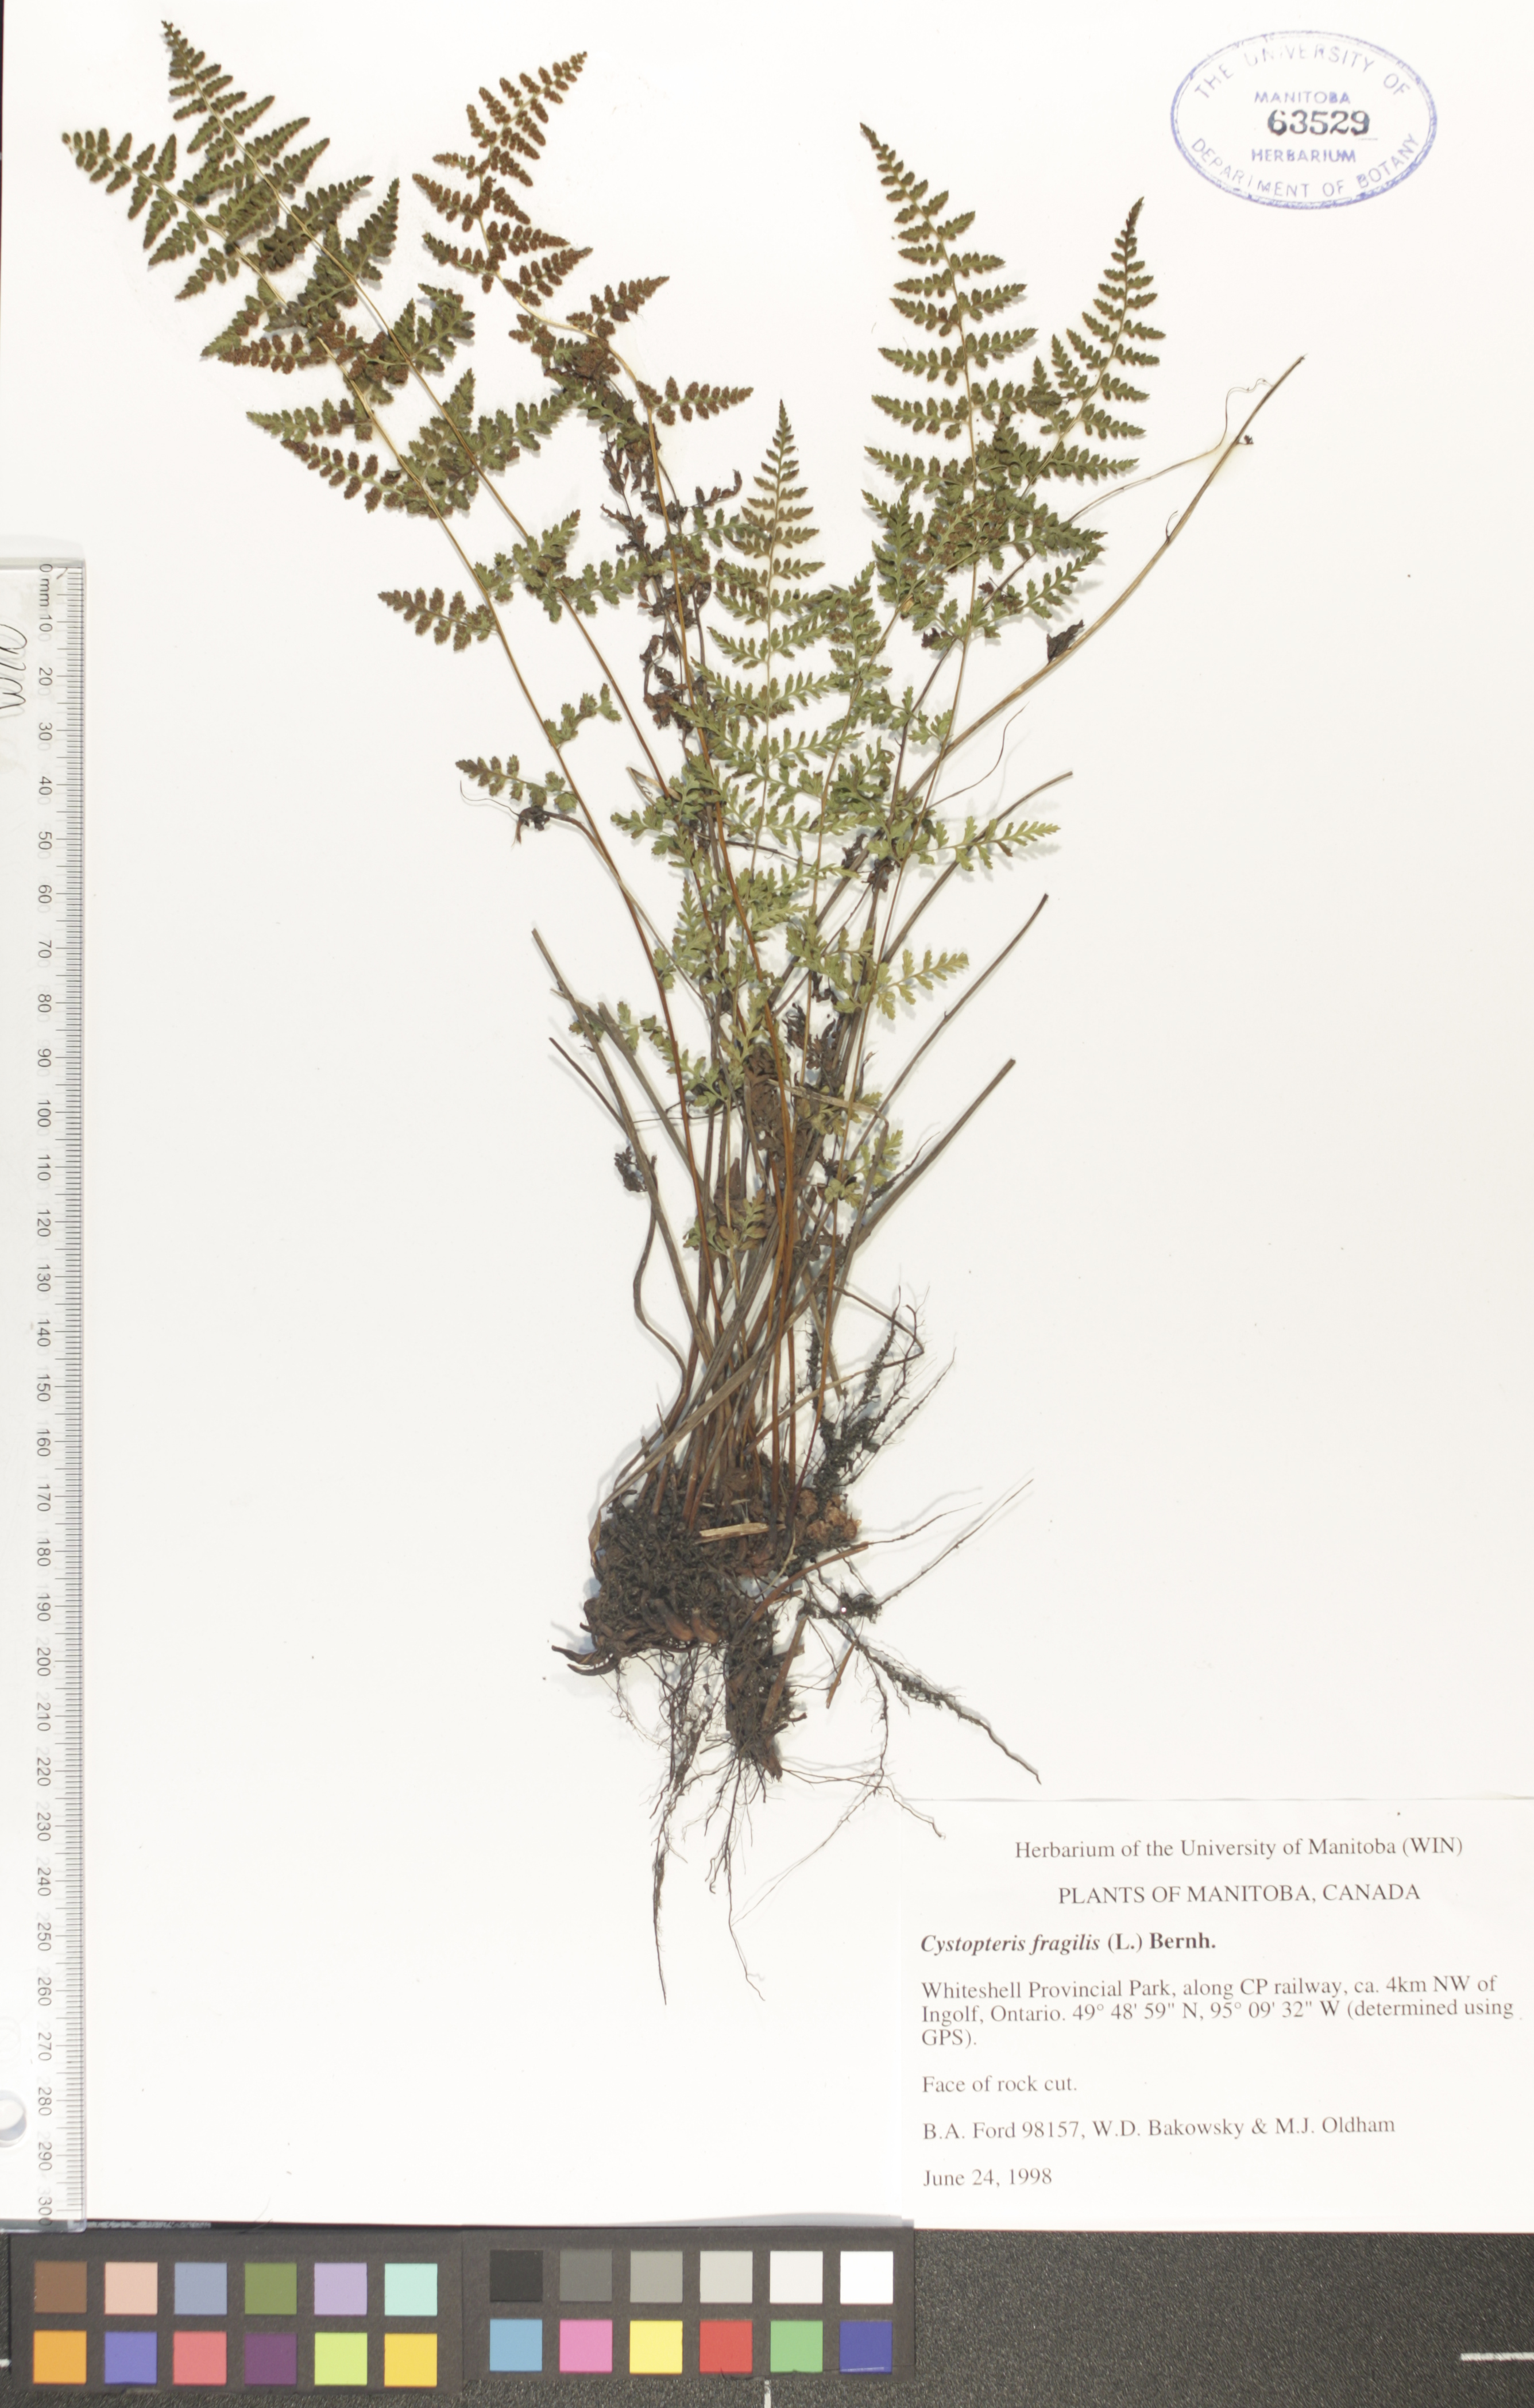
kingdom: Plantae
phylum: Tracheophyta
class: Polypodiopsida
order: Polypodiales
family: Cystopteridaceae
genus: Cystopteris
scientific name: Cystopteris fragilis
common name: Brittle bladder fern
